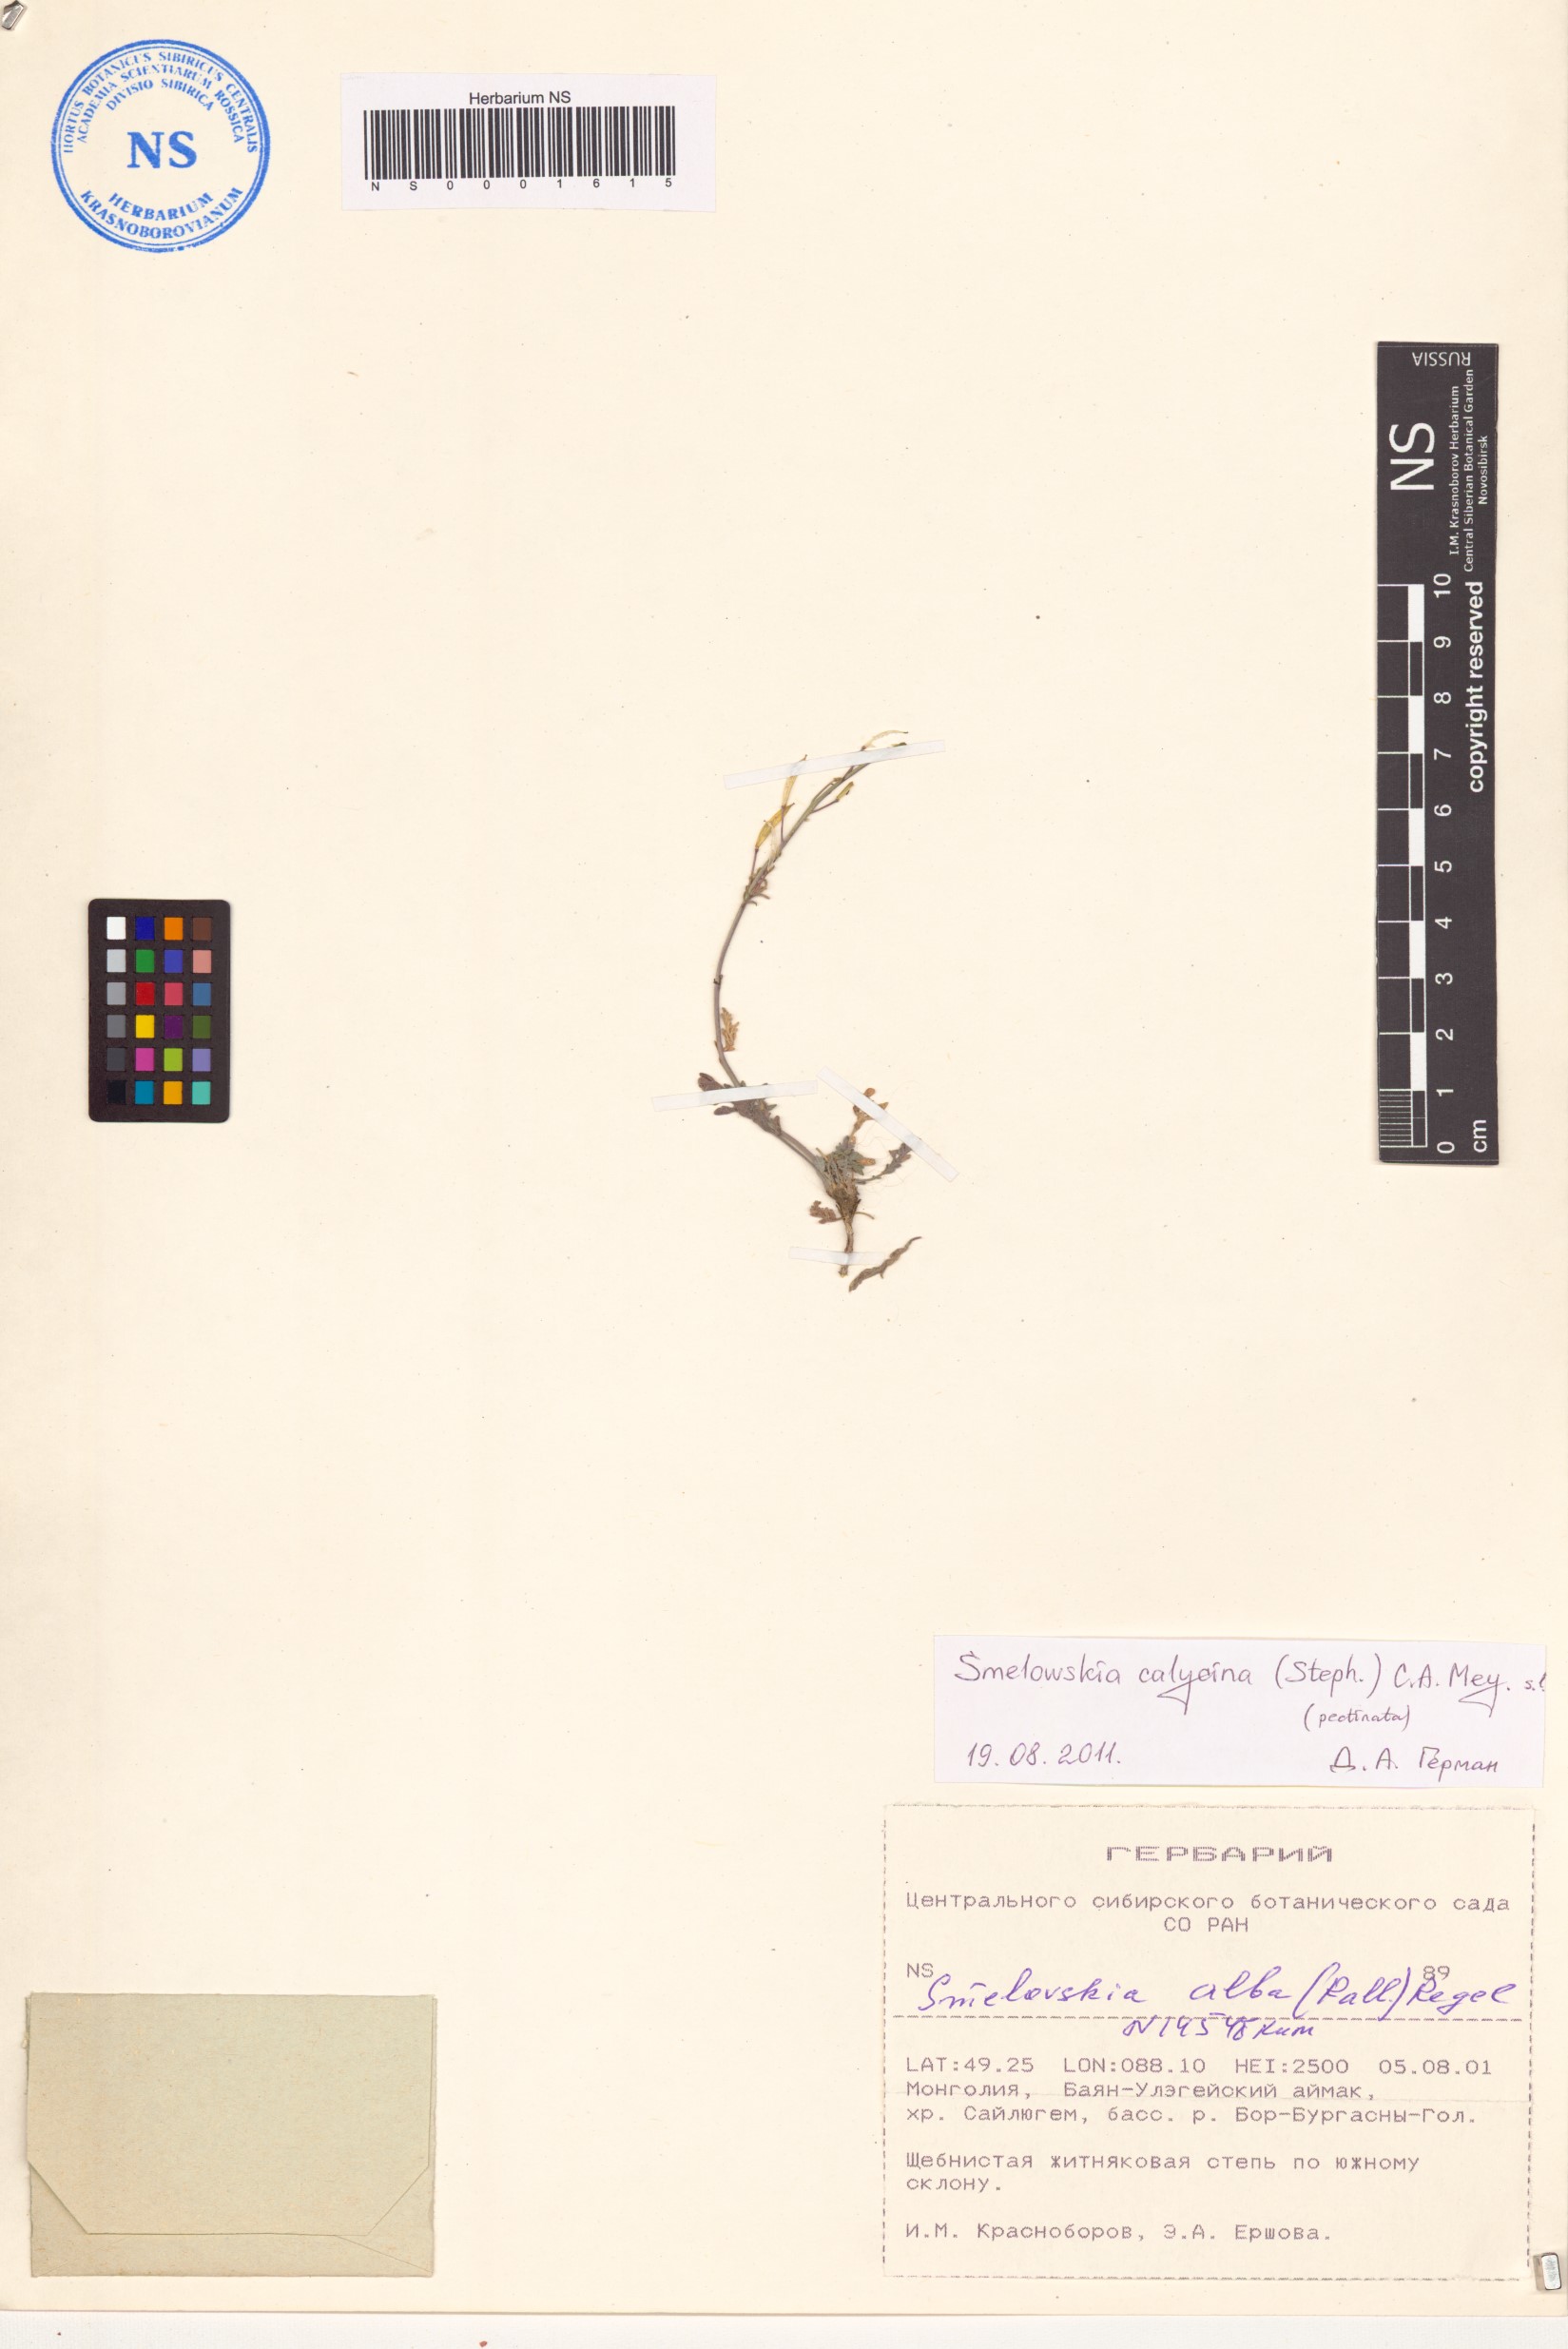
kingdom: Plantae
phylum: Tracheophyta
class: Magnoliopsida
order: Brassicales
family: Brassicaceae
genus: Smelowskia
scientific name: Smelowskia calycina
